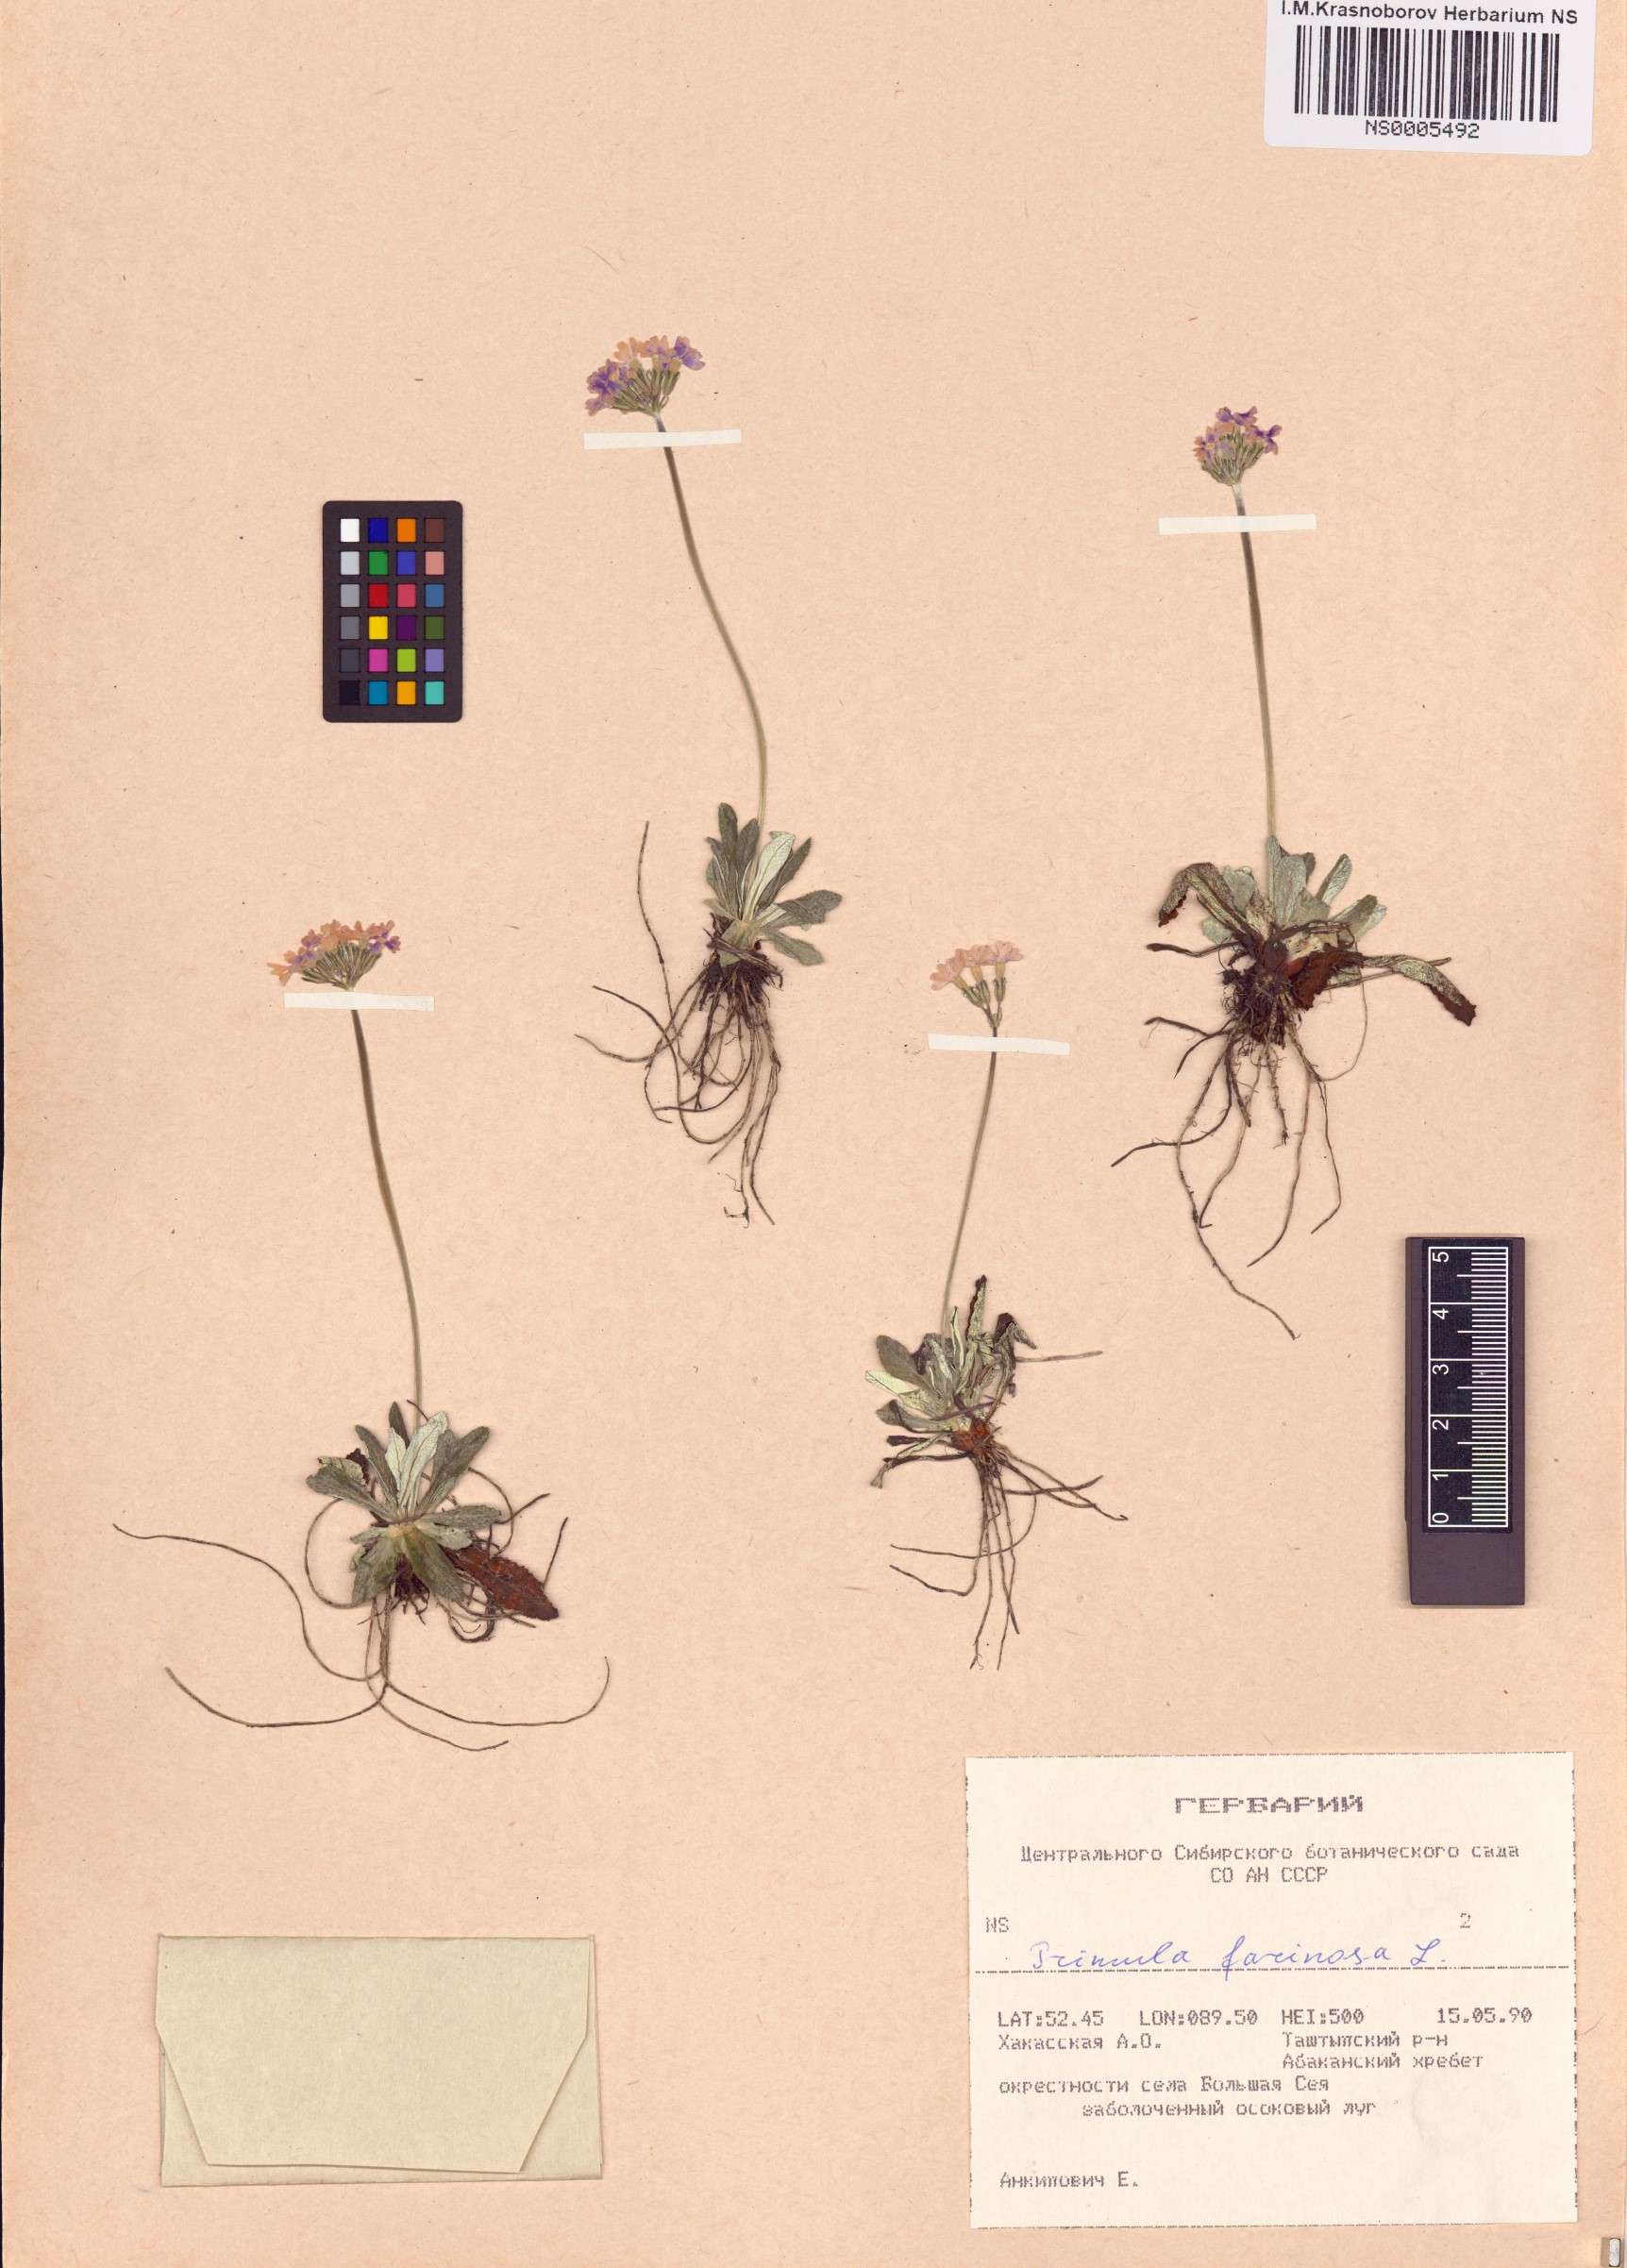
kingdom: Plantae
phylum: Tracheophyta
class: Magnoliopsida
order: Ericales
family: Primulaceae
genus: Primula
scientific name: Primula farinosa
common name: Bird's-eye primrose
